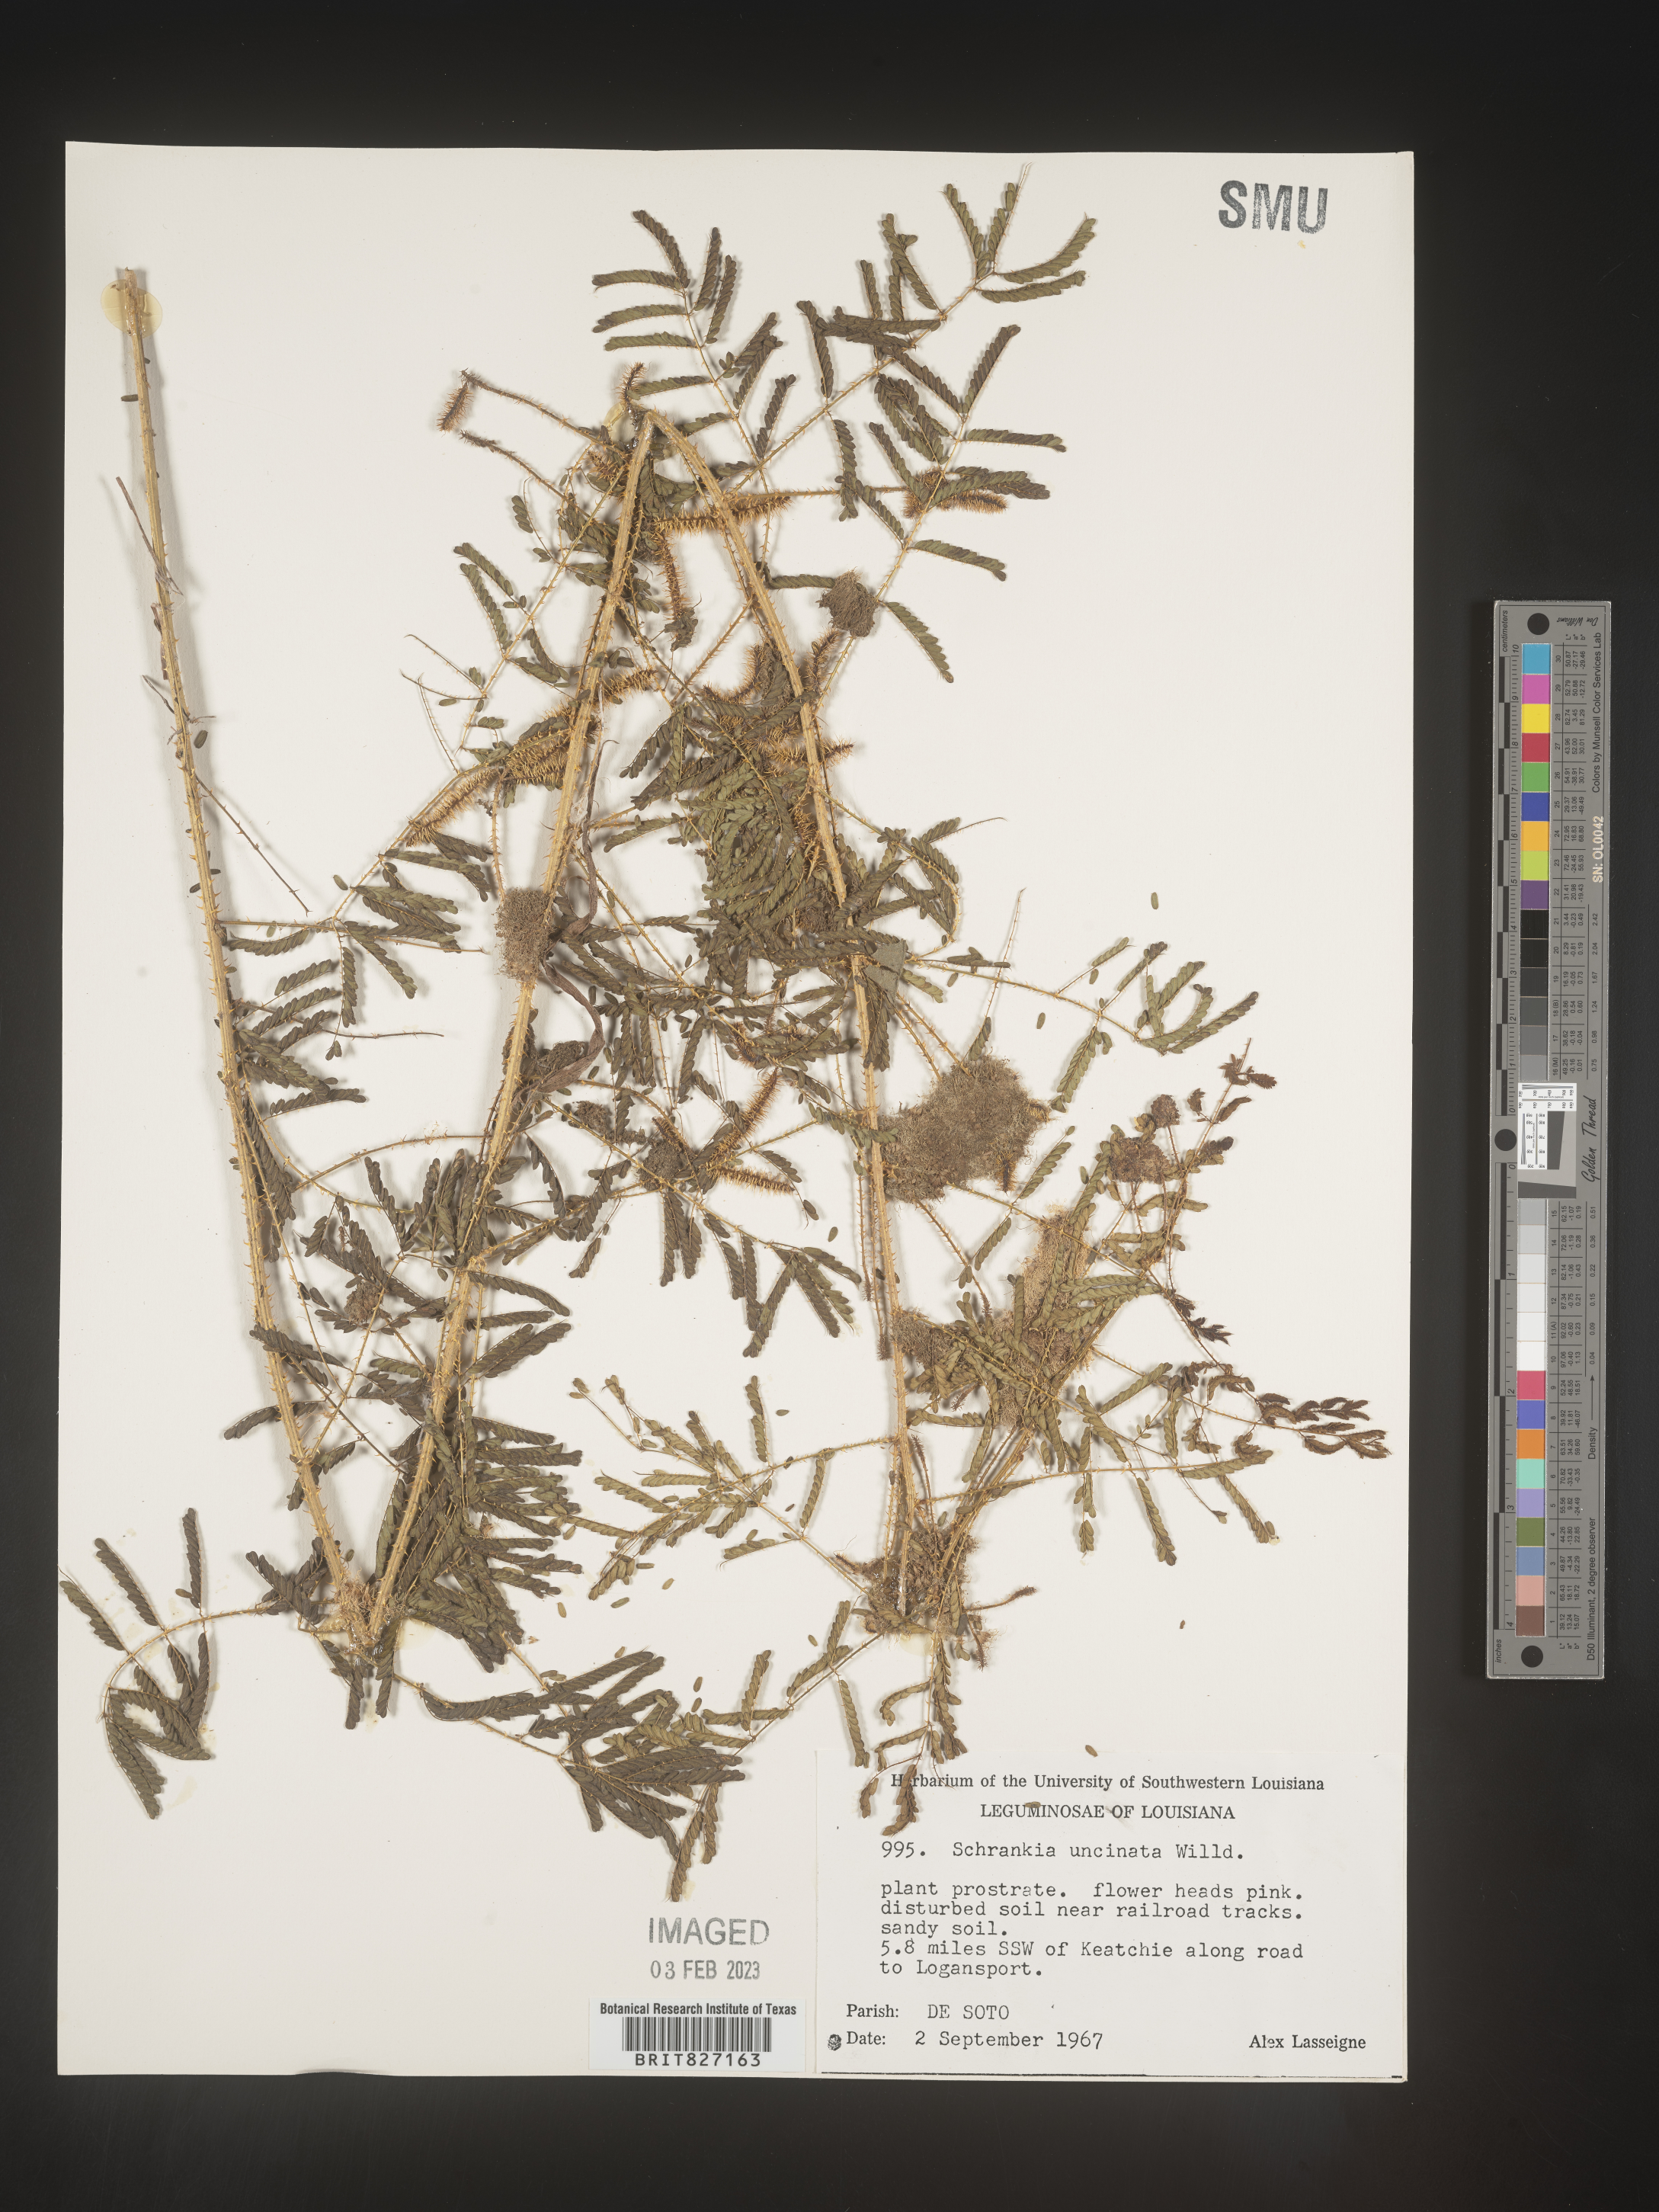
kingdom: Plantae
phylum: Tracheophyta
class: Magnoliopsida
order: Fabales
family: Fabaceae
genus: Mimosa
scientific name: Mimosa quadrivalvis
